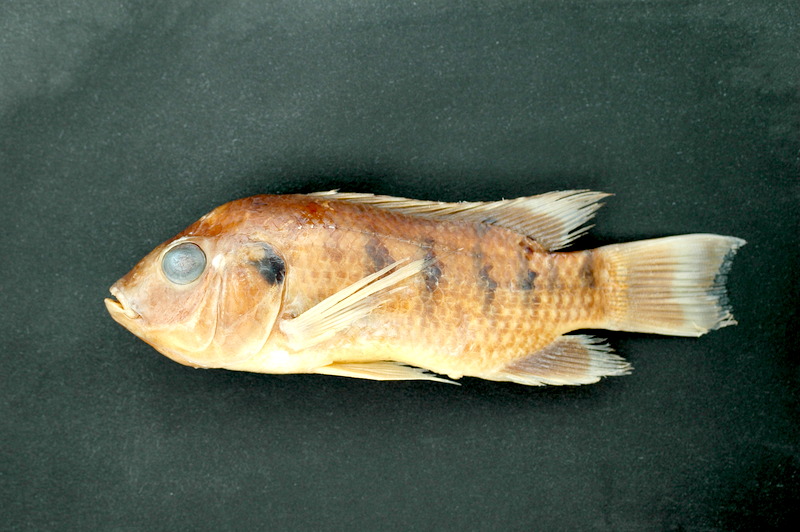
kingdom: Animalia
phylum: Chordata
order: Perciformes
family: Cichlidae
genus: Sarotherodon
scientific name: Sarotherodon galilaeus
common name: Mango tilapia
